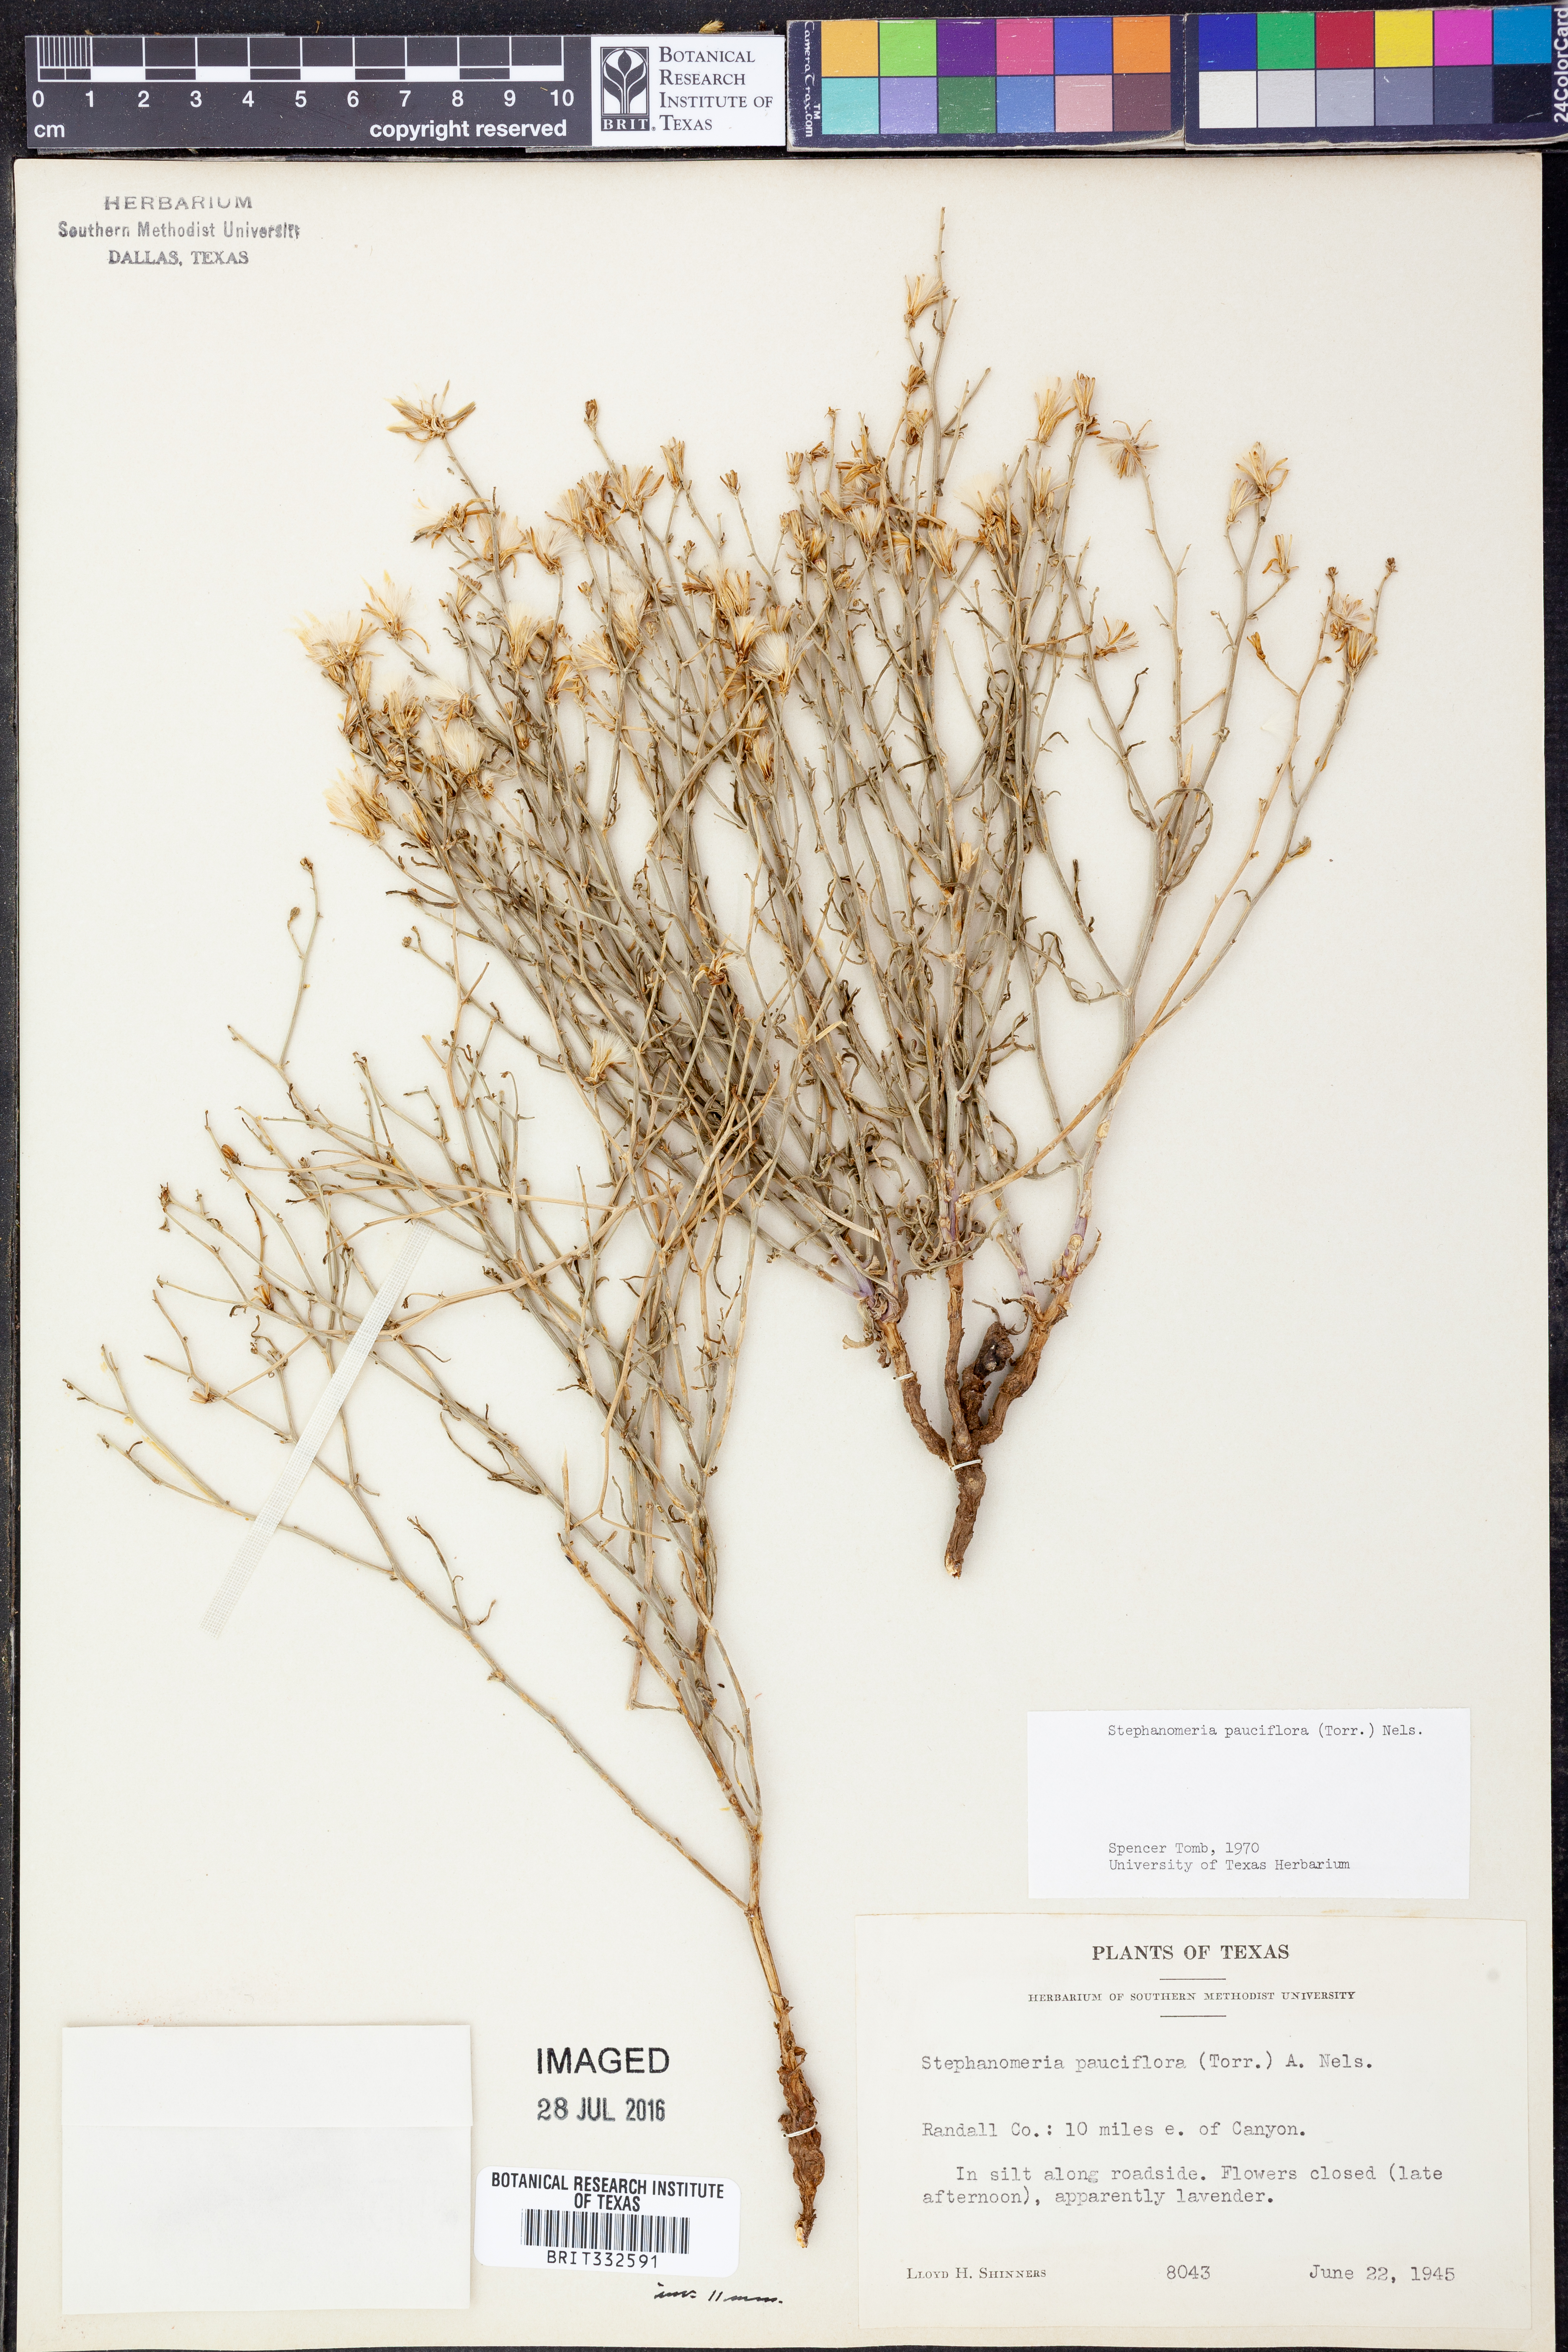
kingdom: Plantae
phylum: Tracheophyta
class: Magnoliopsida
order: Asterales
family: Asteraceae
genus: Stephanomeria
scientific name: Stephanomeria pauciflora
